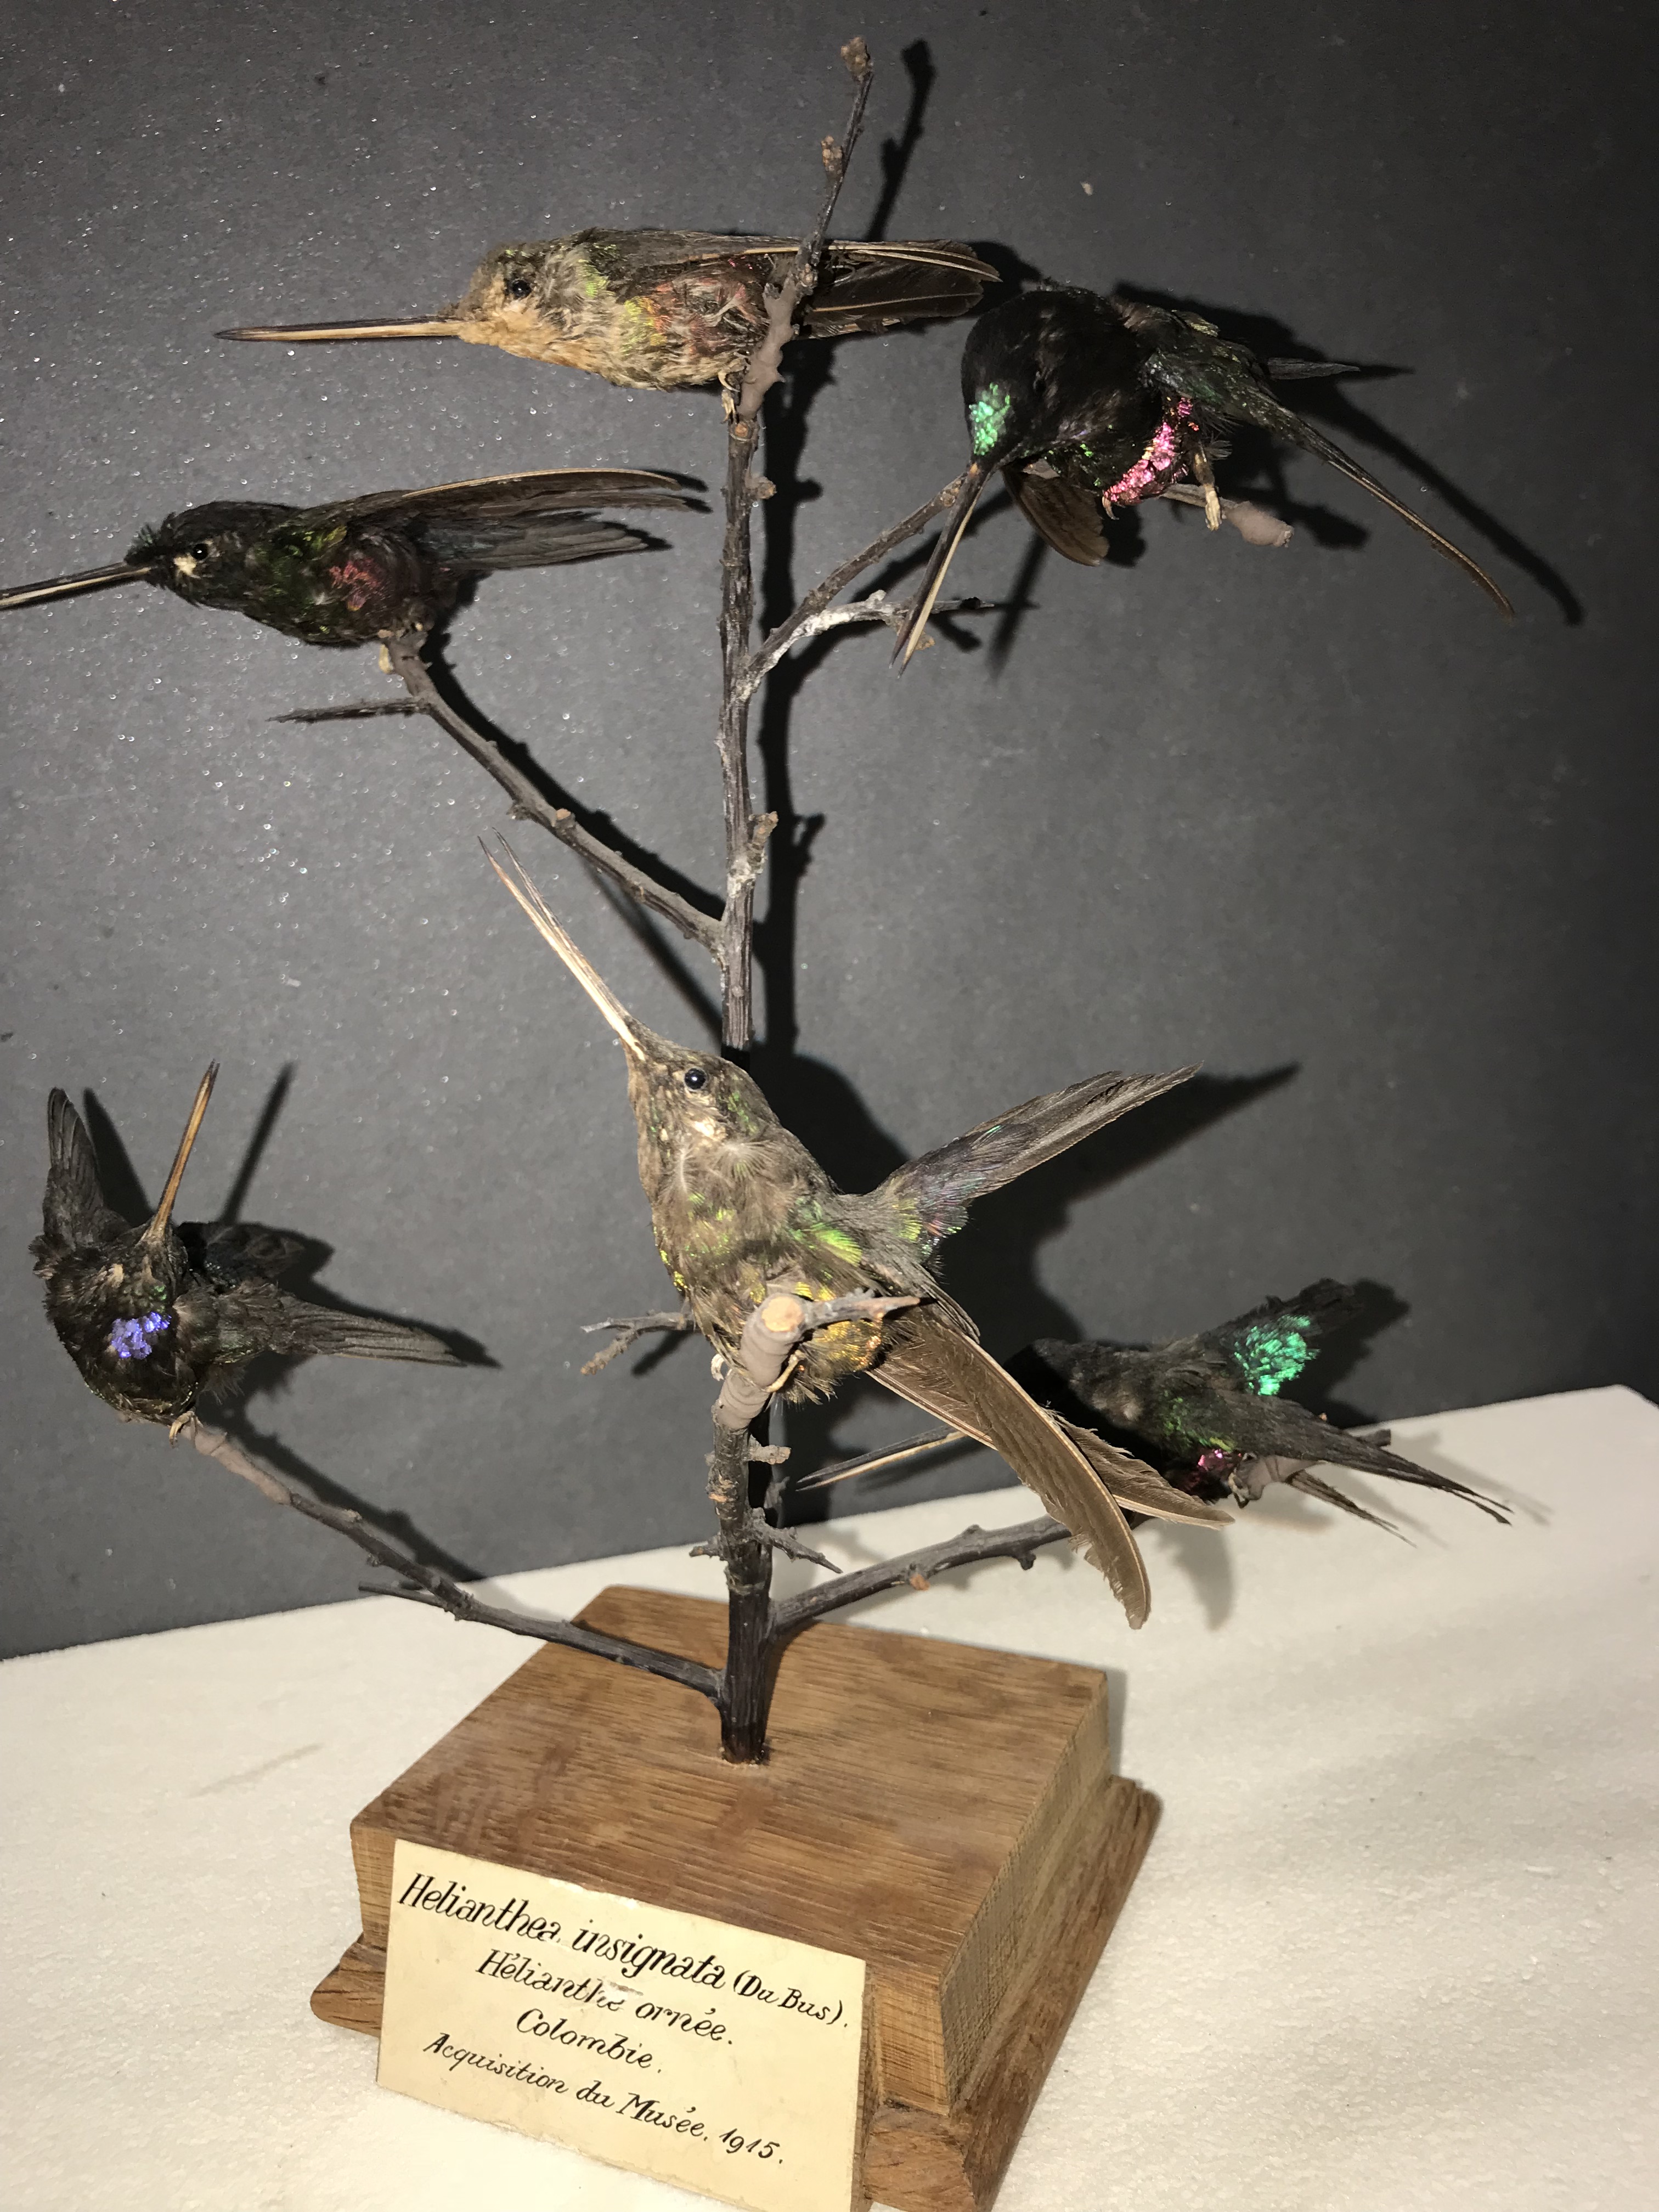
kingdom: Animalia
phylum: Chordata
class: Aves
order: Apodiformes
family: Trochilidae
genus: Coeligena
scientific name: Coeligena helianthea
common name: Blue-throated starfrontlet
